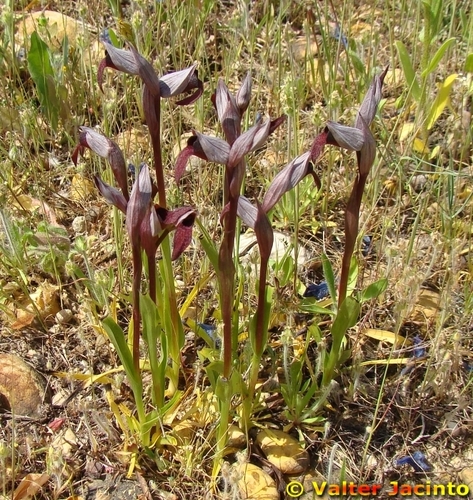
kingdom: Plantae
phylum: Tracheophyta
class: Liliopsida
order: Asparagales
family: Orchidaceae
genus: Serapias
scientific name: Serapias strictiflora
